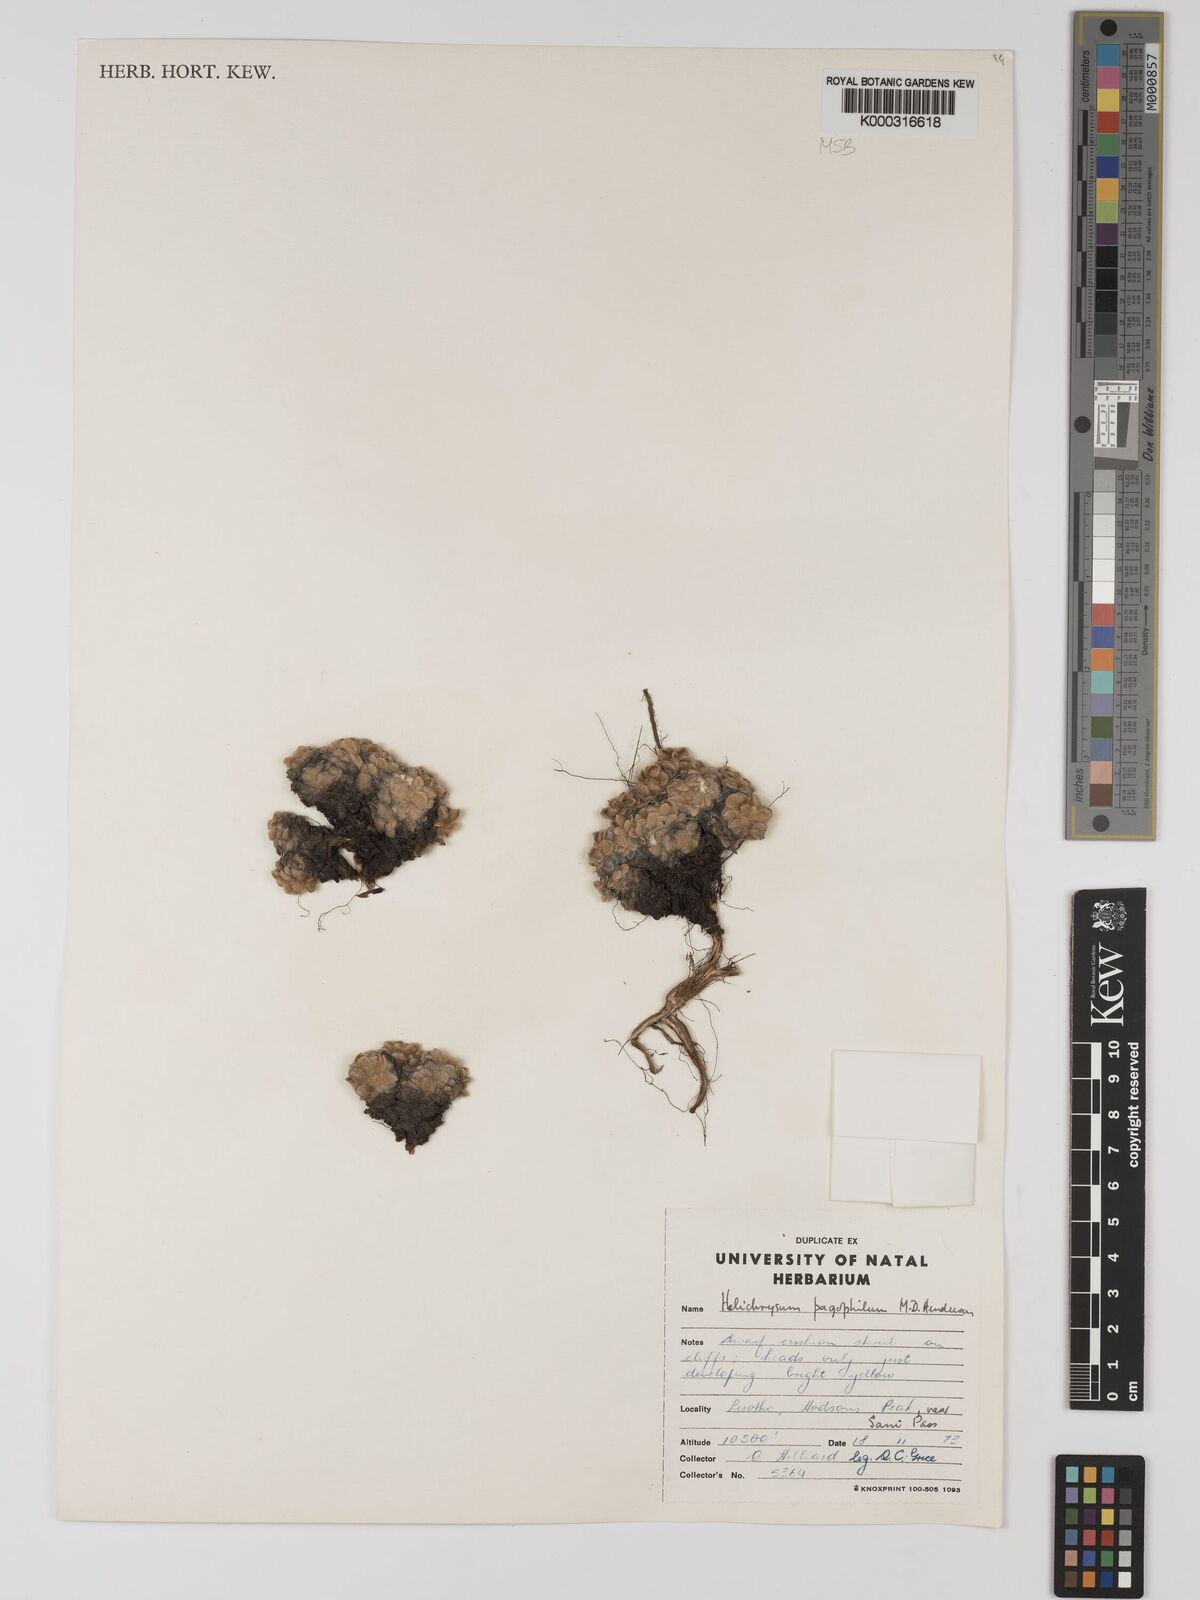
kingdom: Plantae
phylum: Tracheophyta
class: Magnoliopsida
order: Asterales
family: Asteraceae
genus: Helichrysum
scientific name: Helichrysum pagophilum
